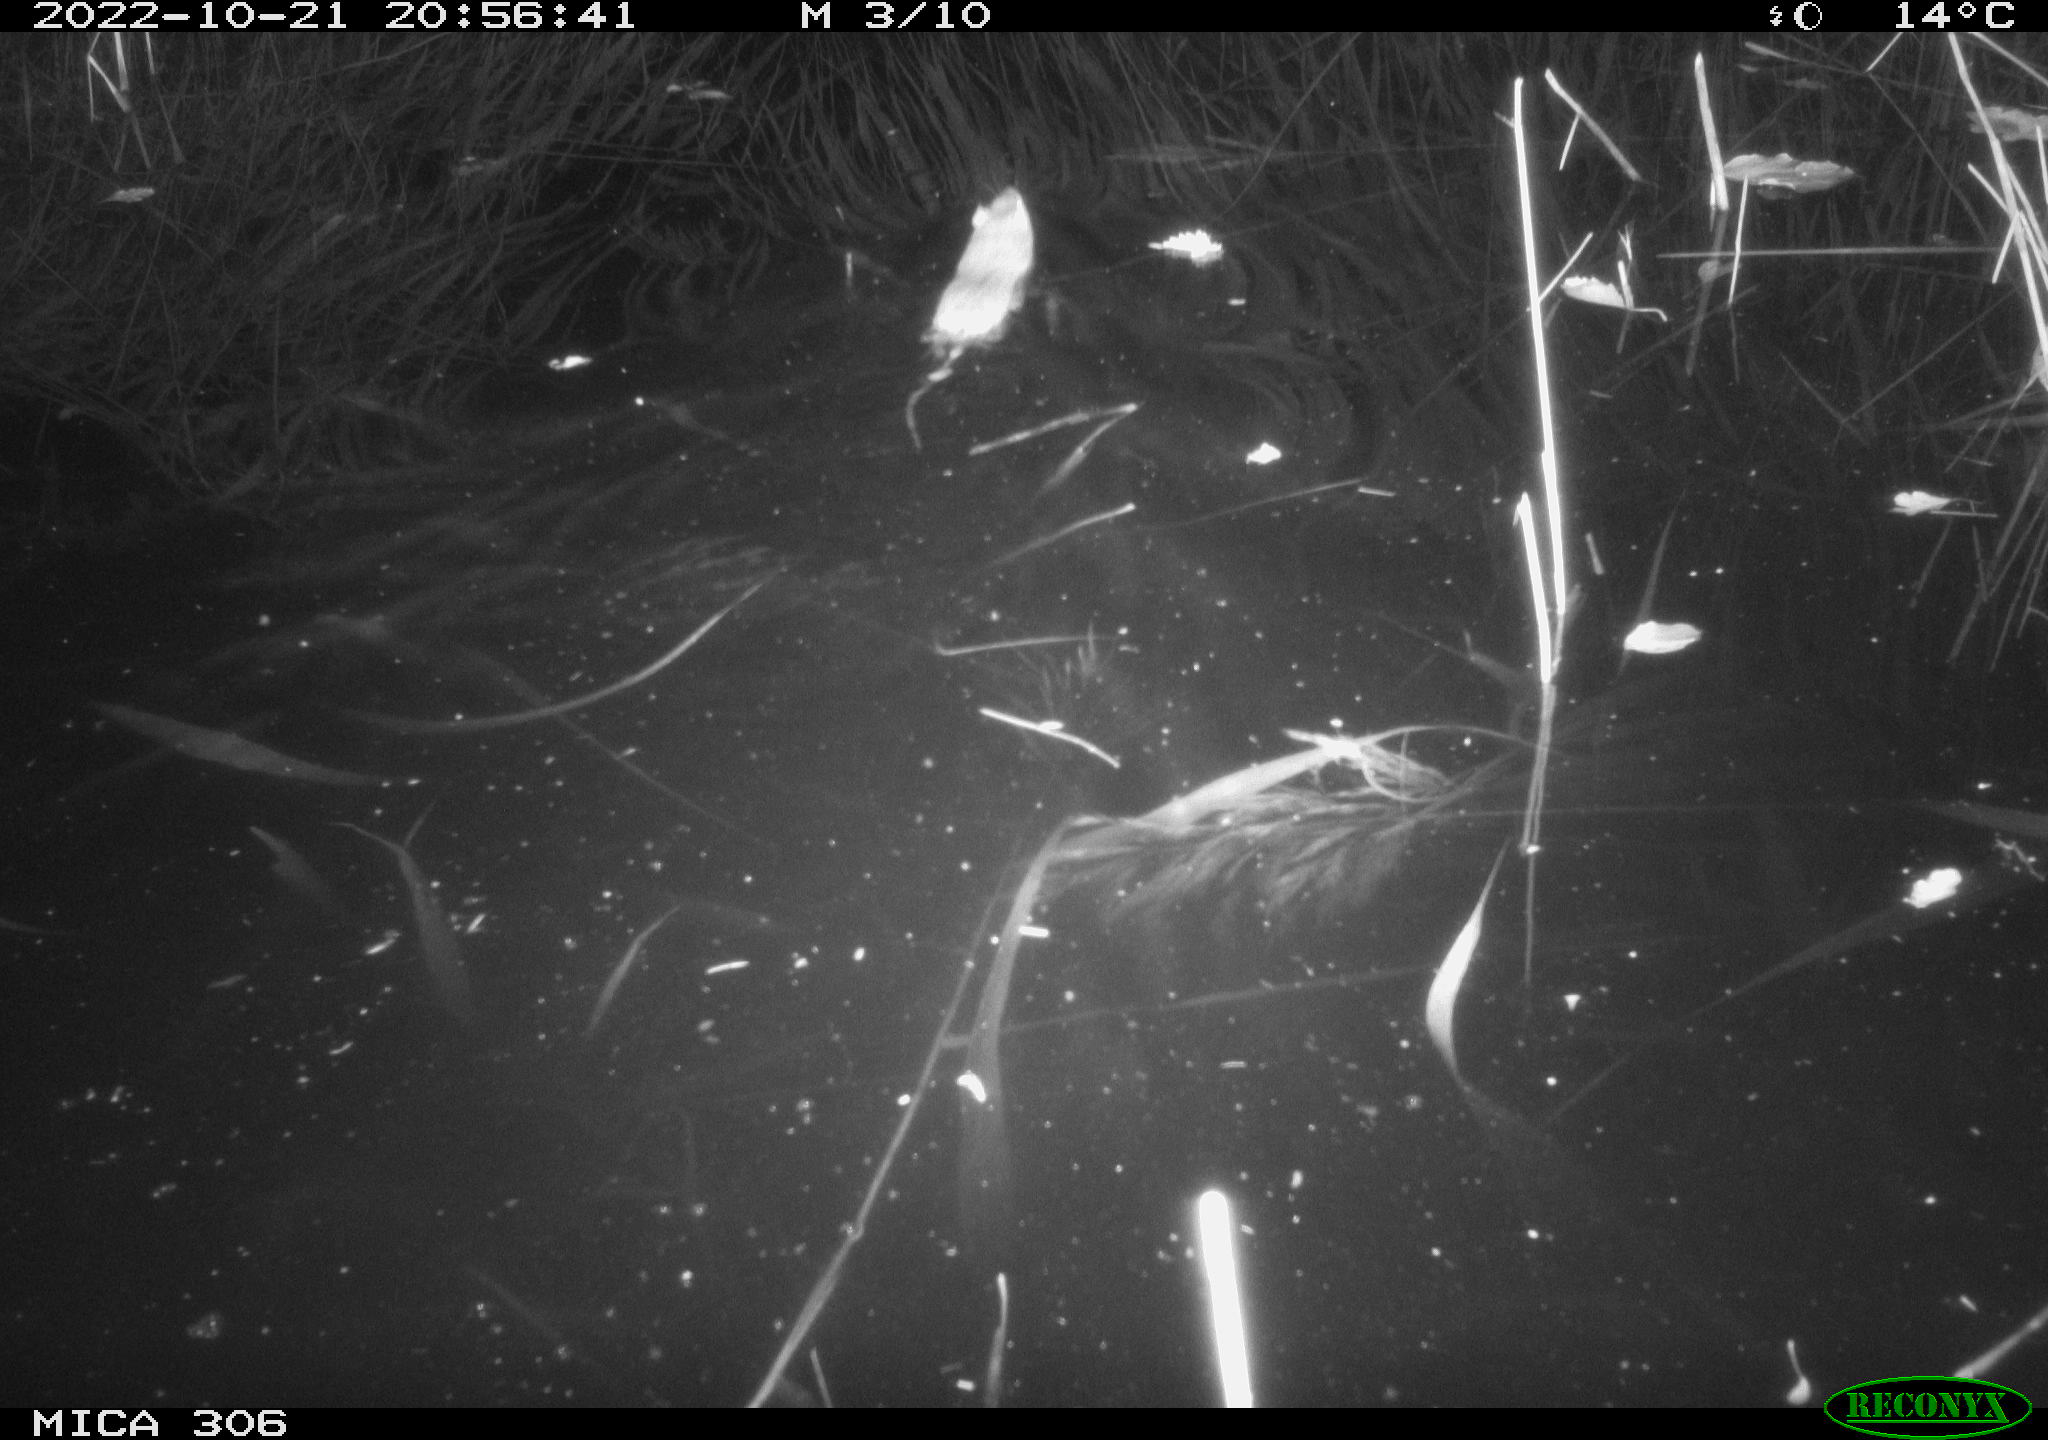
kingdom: Animalia
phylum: Chordata
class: Mammalia
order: Rodentia
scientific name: Rodentia
